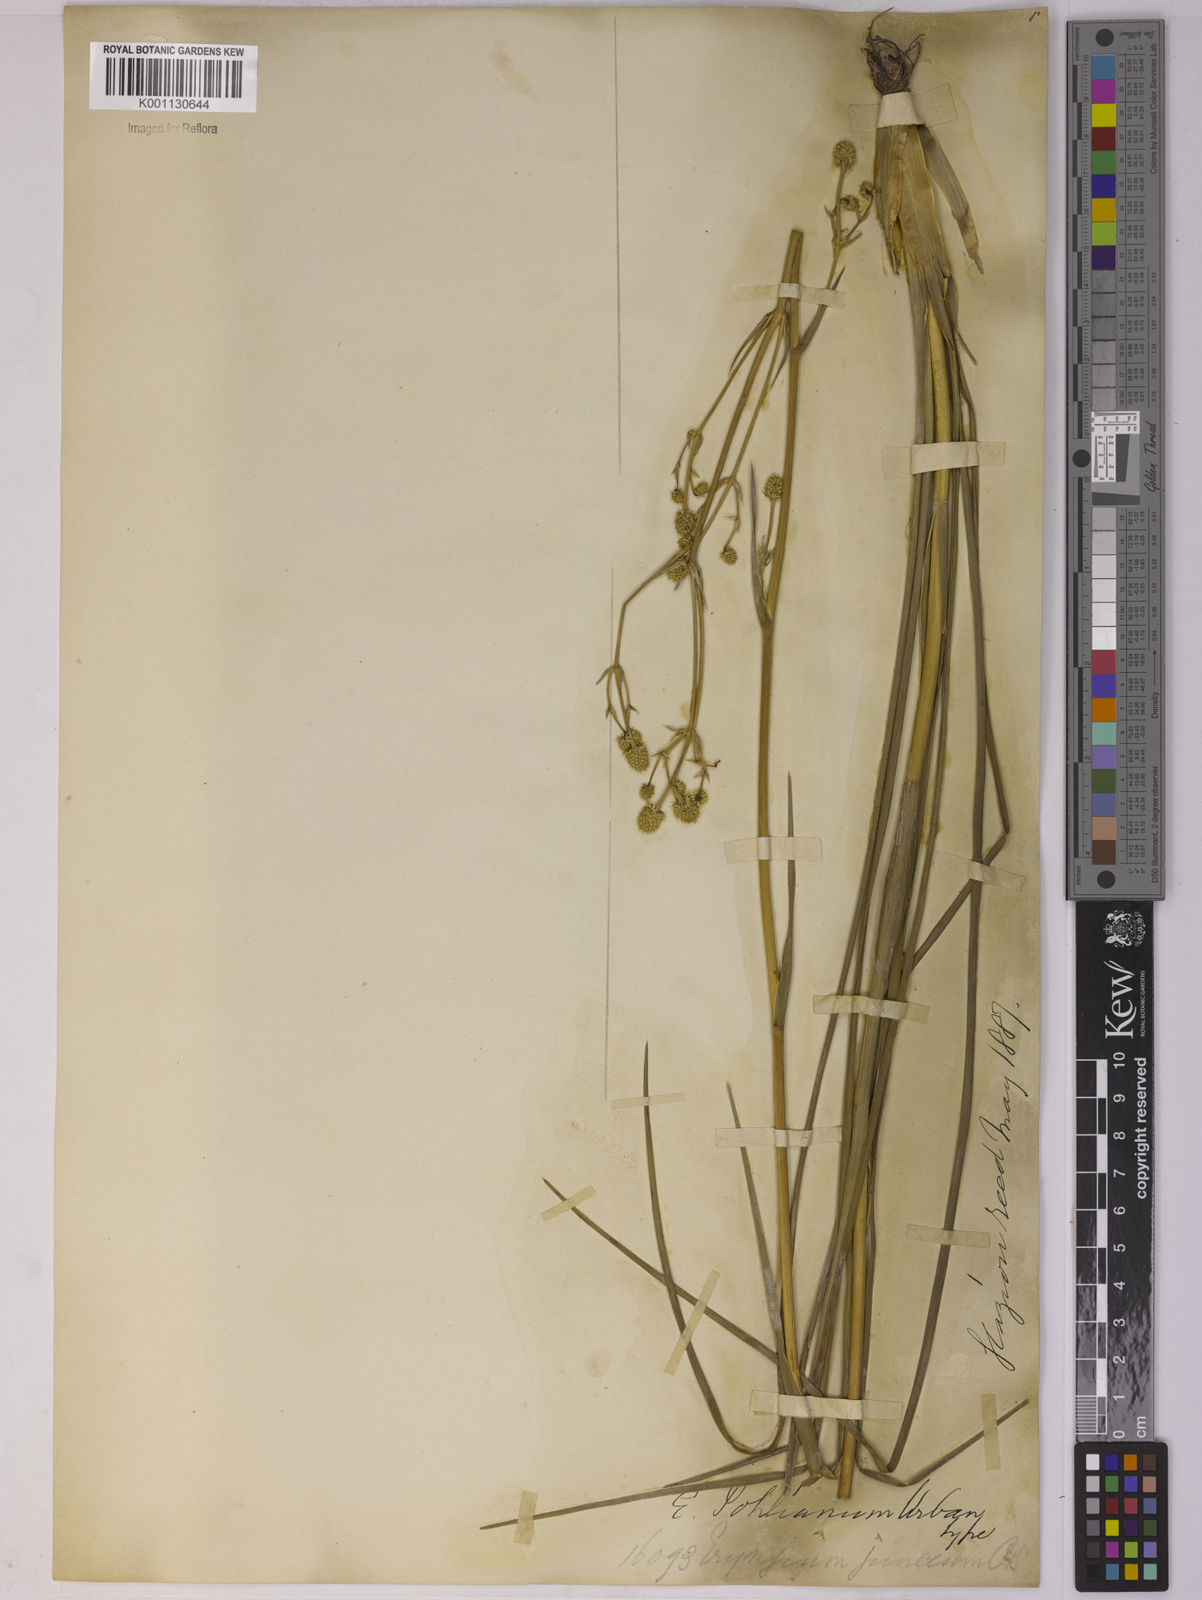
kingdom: Plantae
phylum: Tracheophyta
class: Magnoliopsida
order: Apiales
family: Apiaceae
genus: Eryngium
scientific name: Eryngium pohlianum
